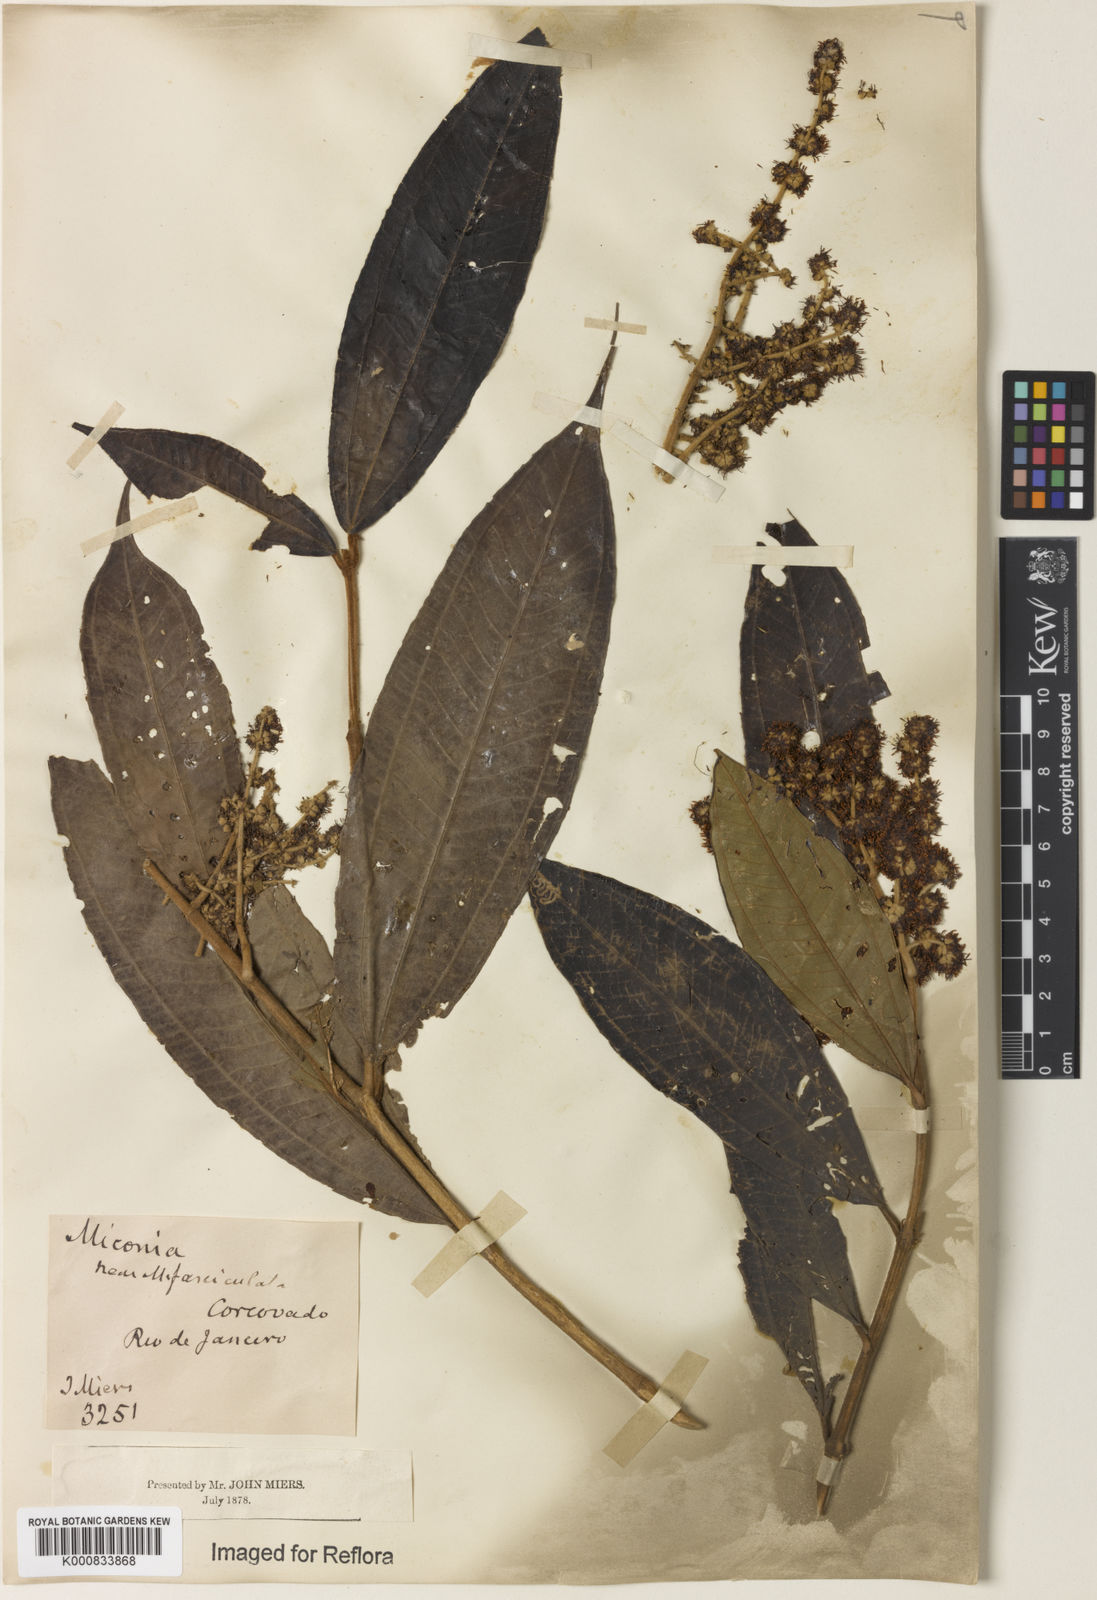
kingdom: Plantae
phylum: Tracheophyta
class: Magnoliopsida
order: Myrtales
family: Melastomataceae
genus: Miconia
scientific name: Miconia fasciculata
